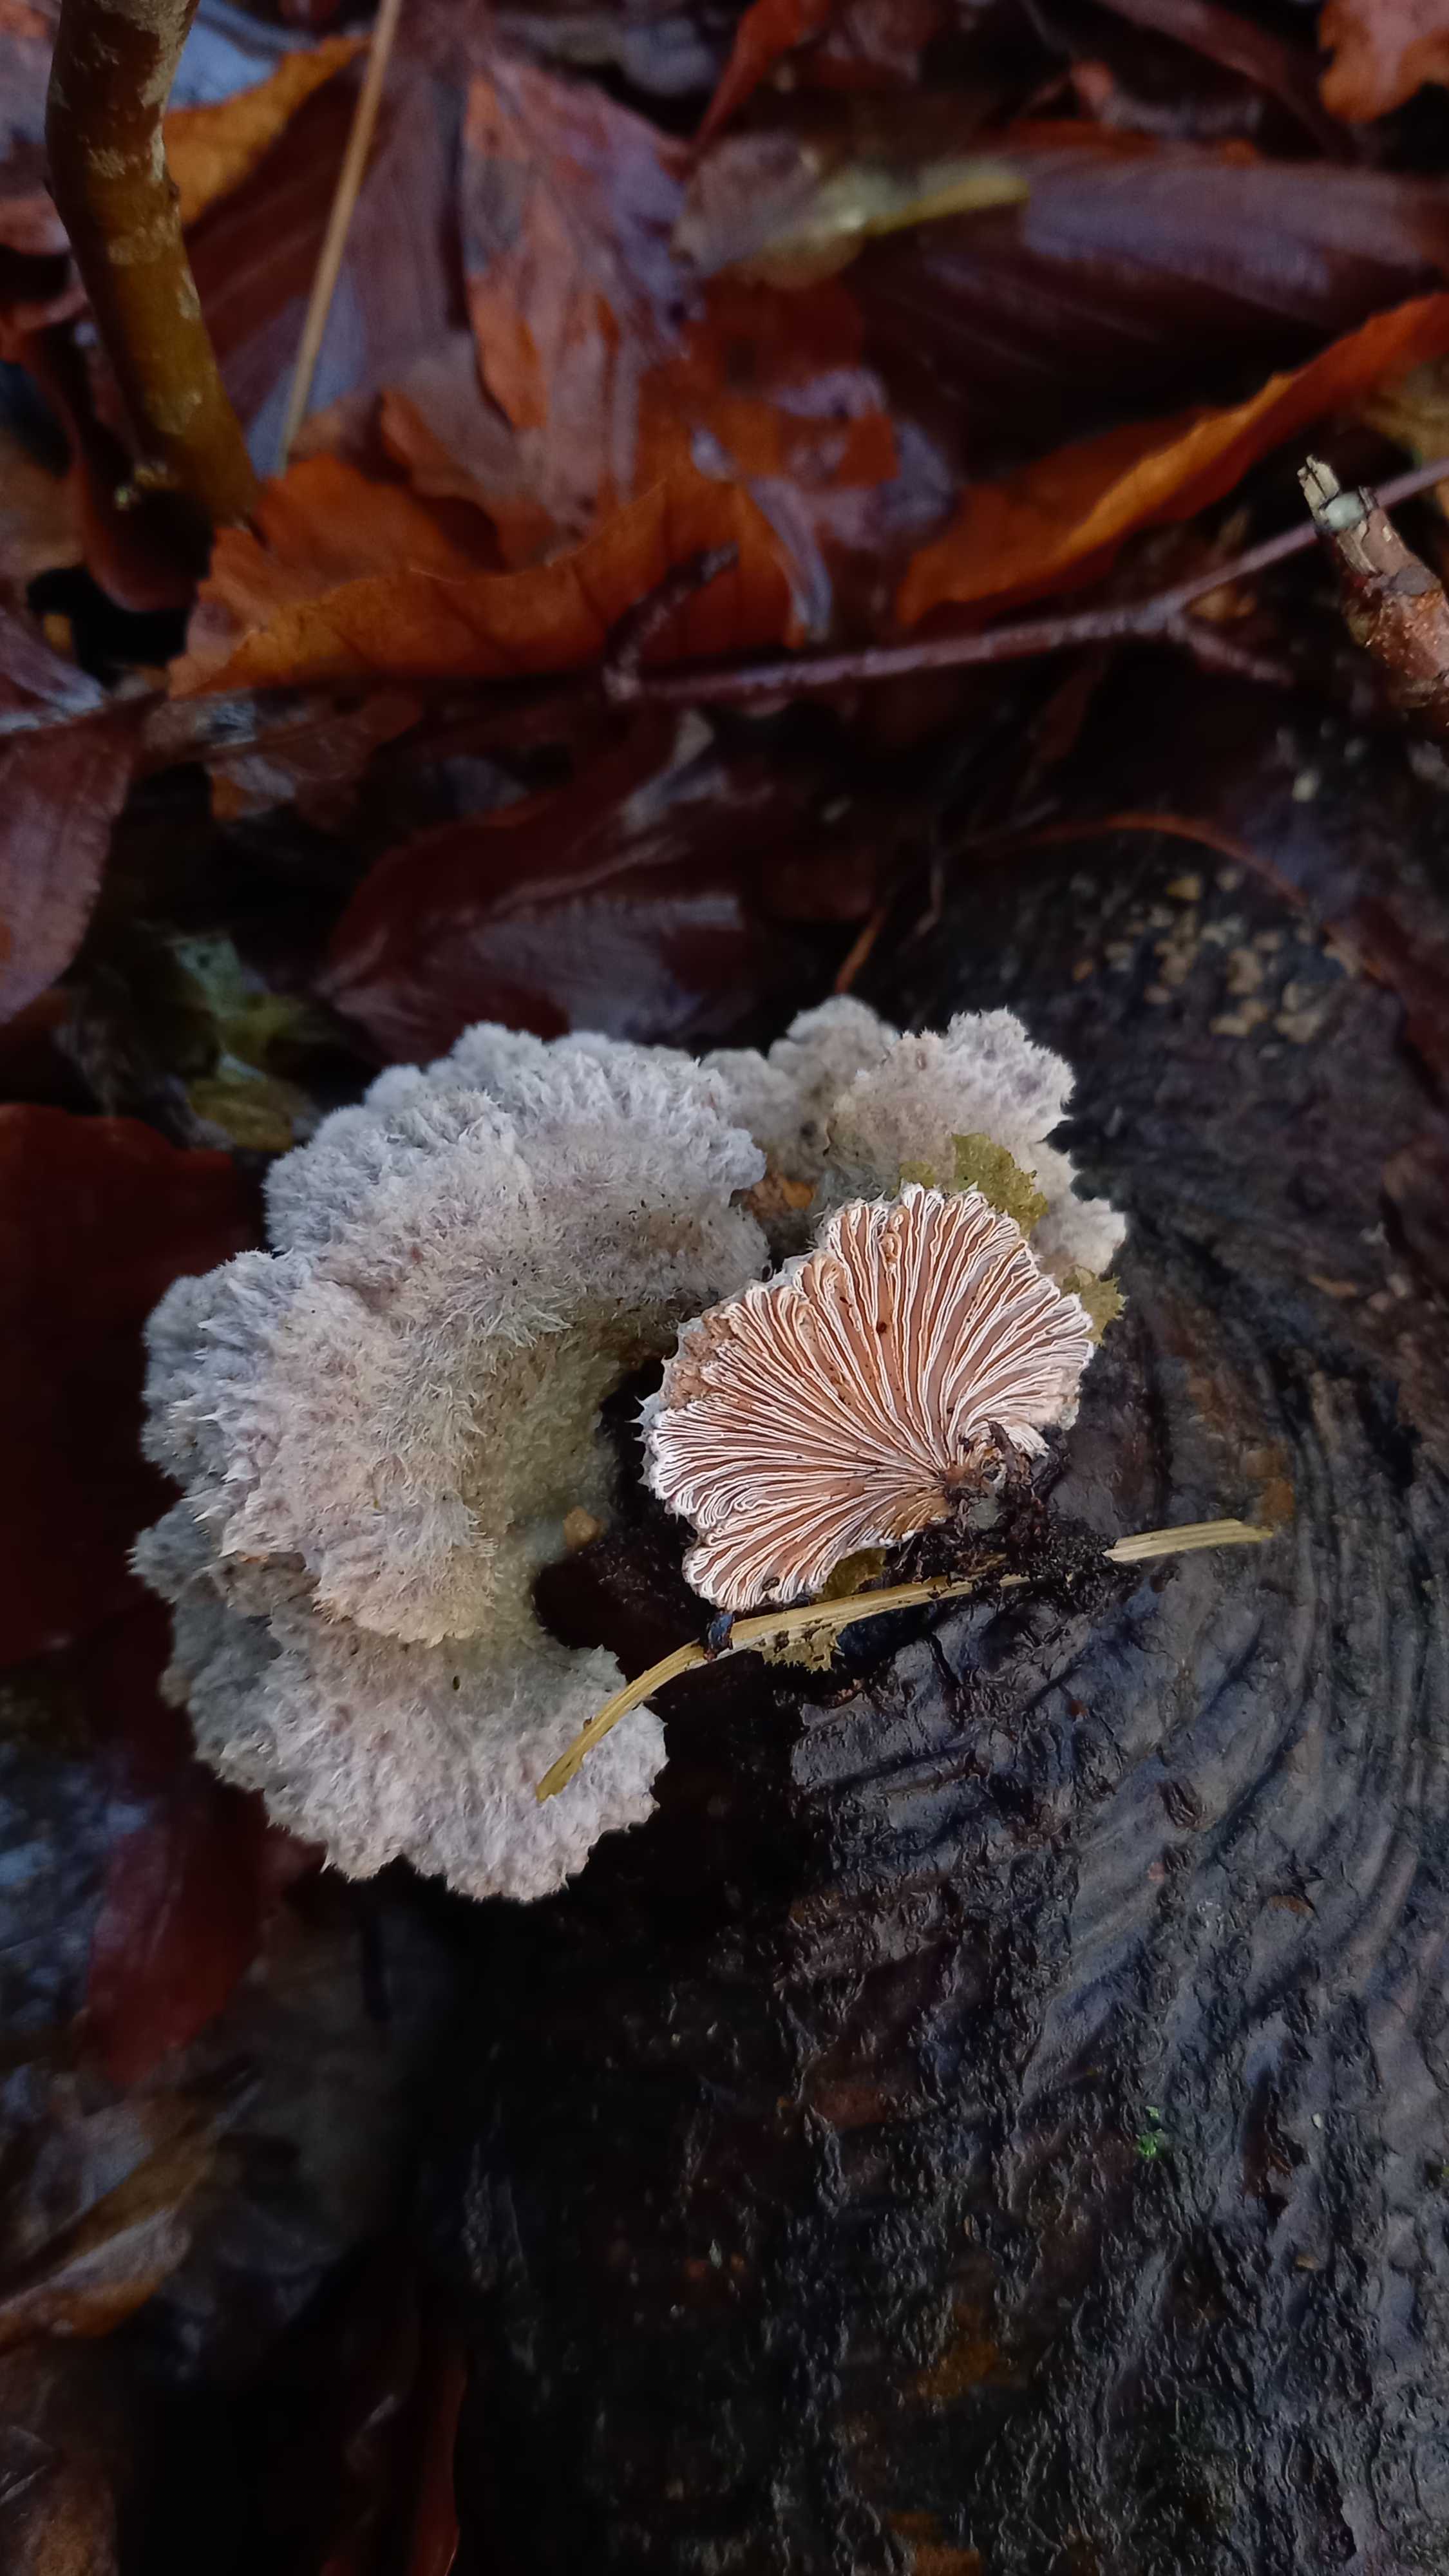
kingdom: Fungi
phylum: Basidiomycota
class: Agaricomycetes
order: Agaricales
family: Schizophyllaceae
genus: Schizophyllum
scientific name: Schizophyllum commune
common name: kløvblad
